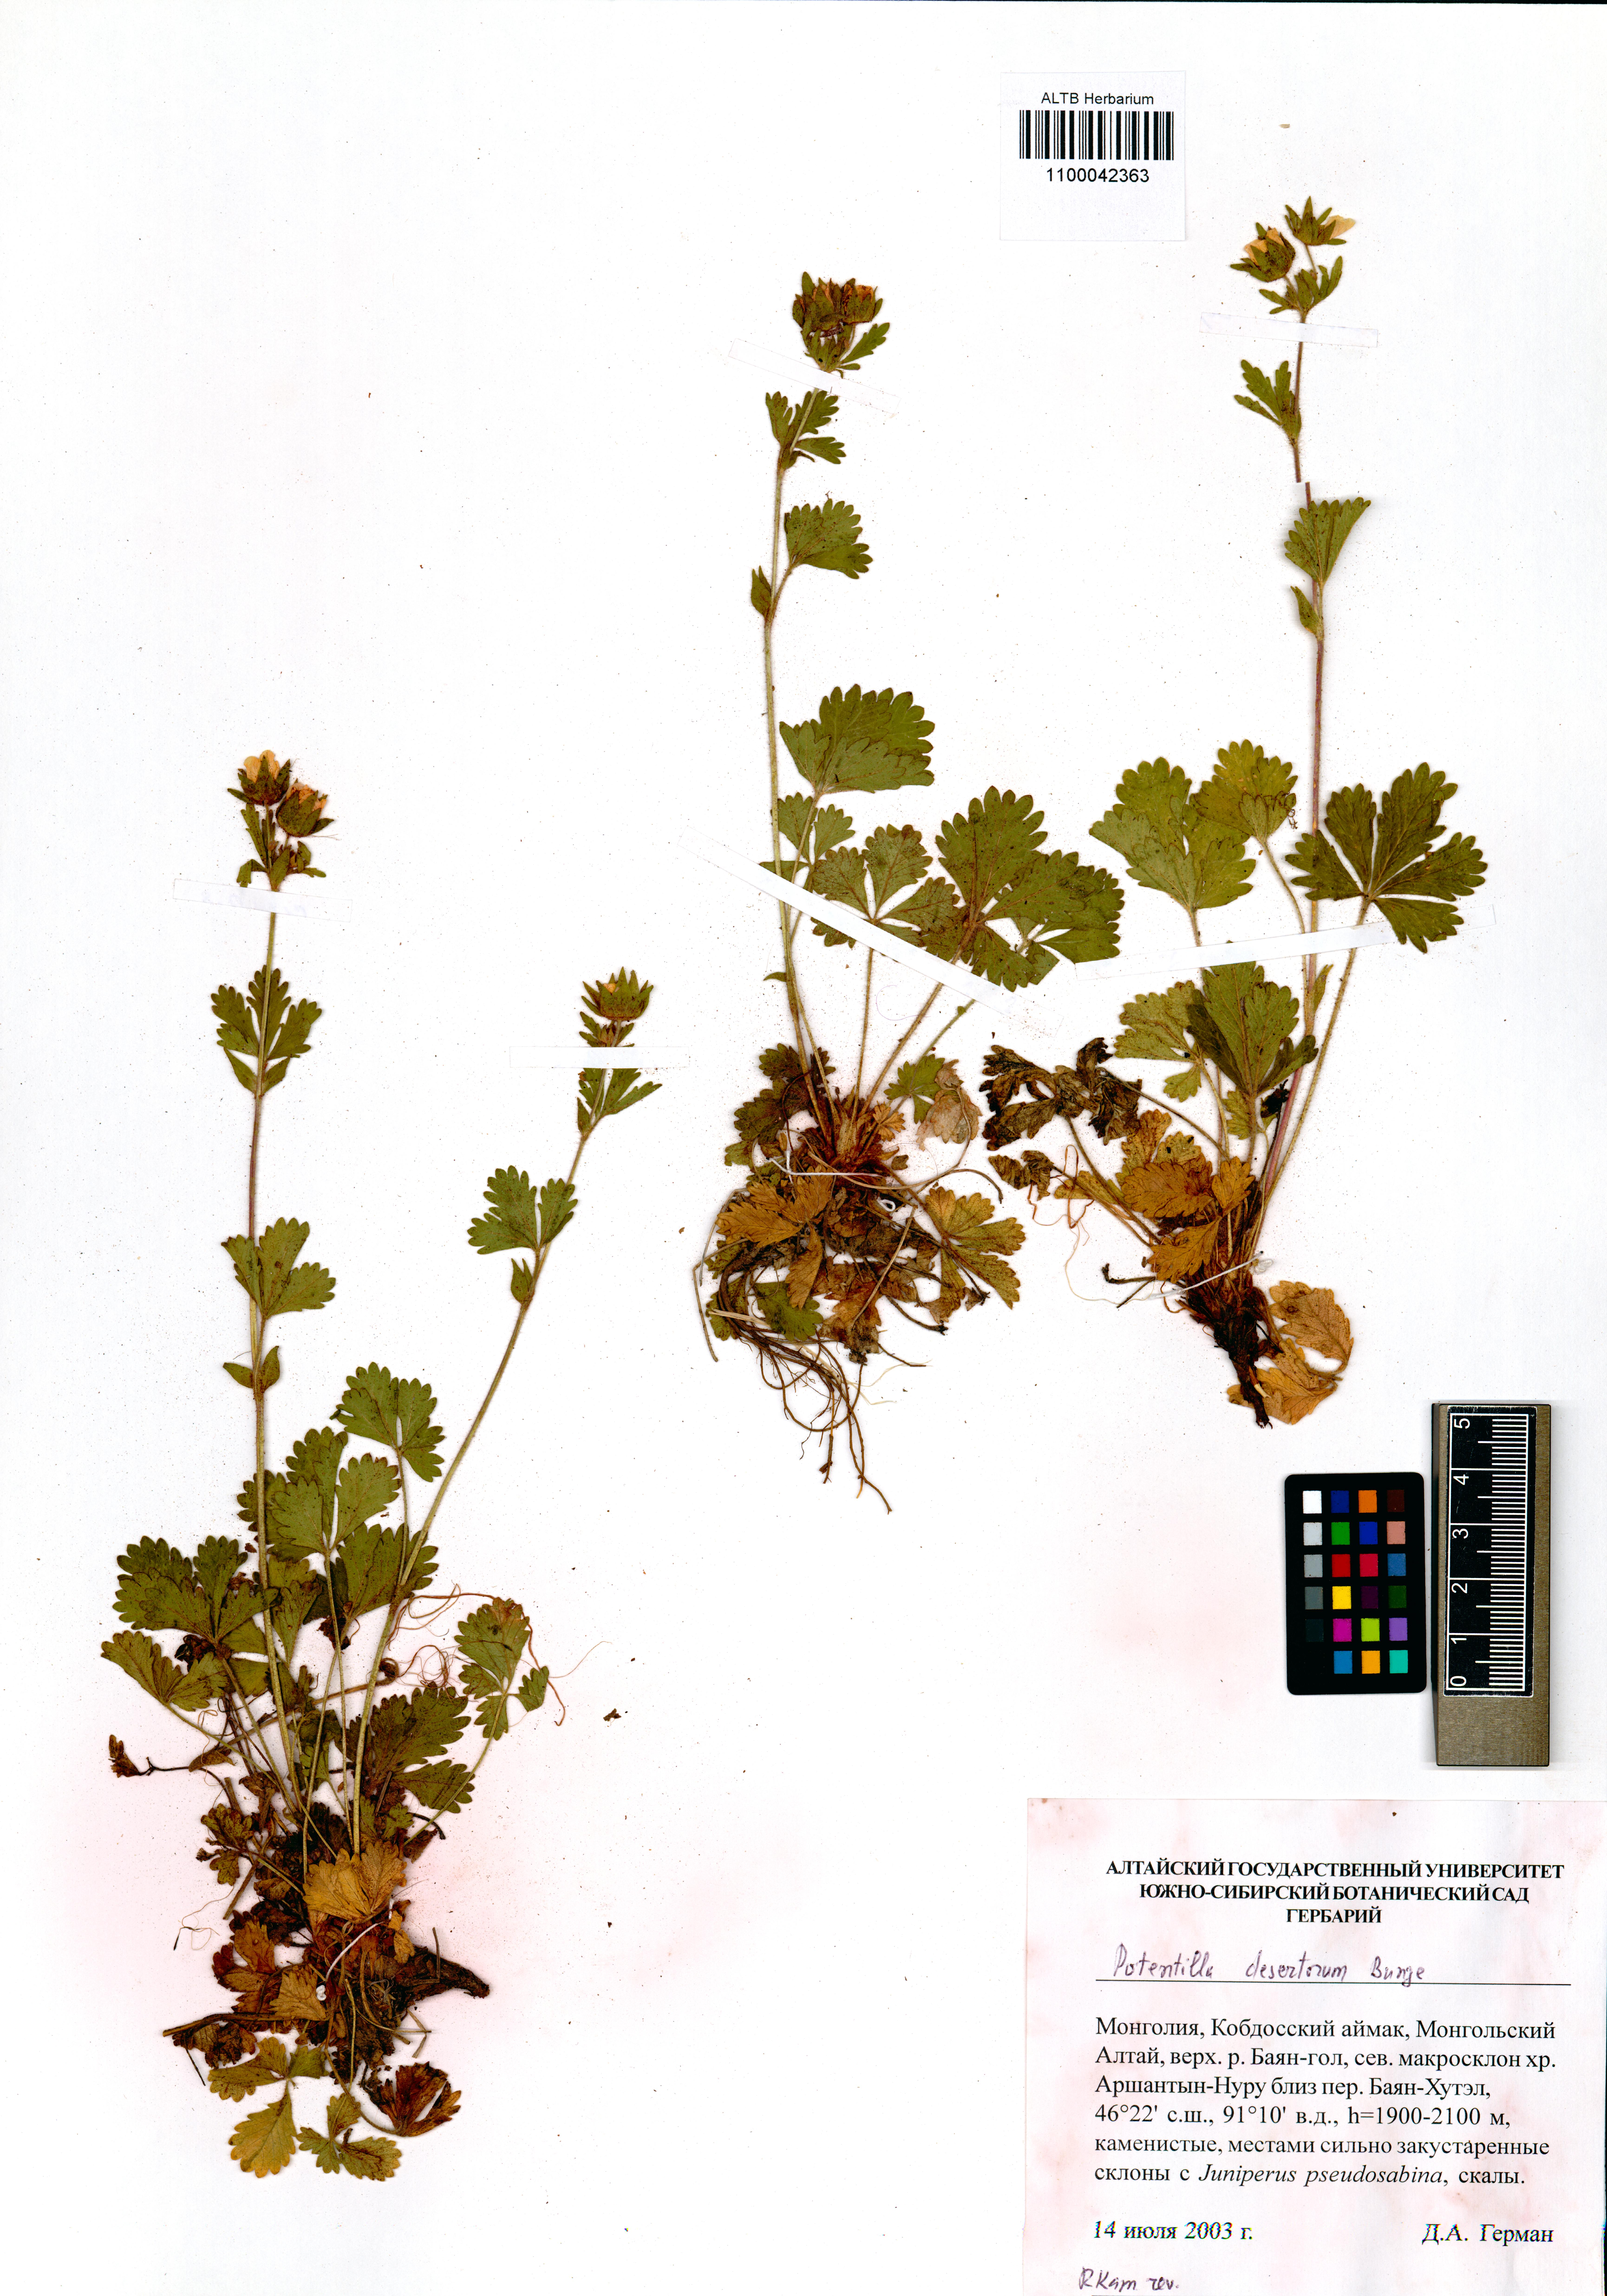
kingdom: Plantae
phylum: Tracheophyta
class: Magnoliopsida
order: Rosales
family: Rosaceae
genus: Potentilla
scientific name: Potentilla desertorum
